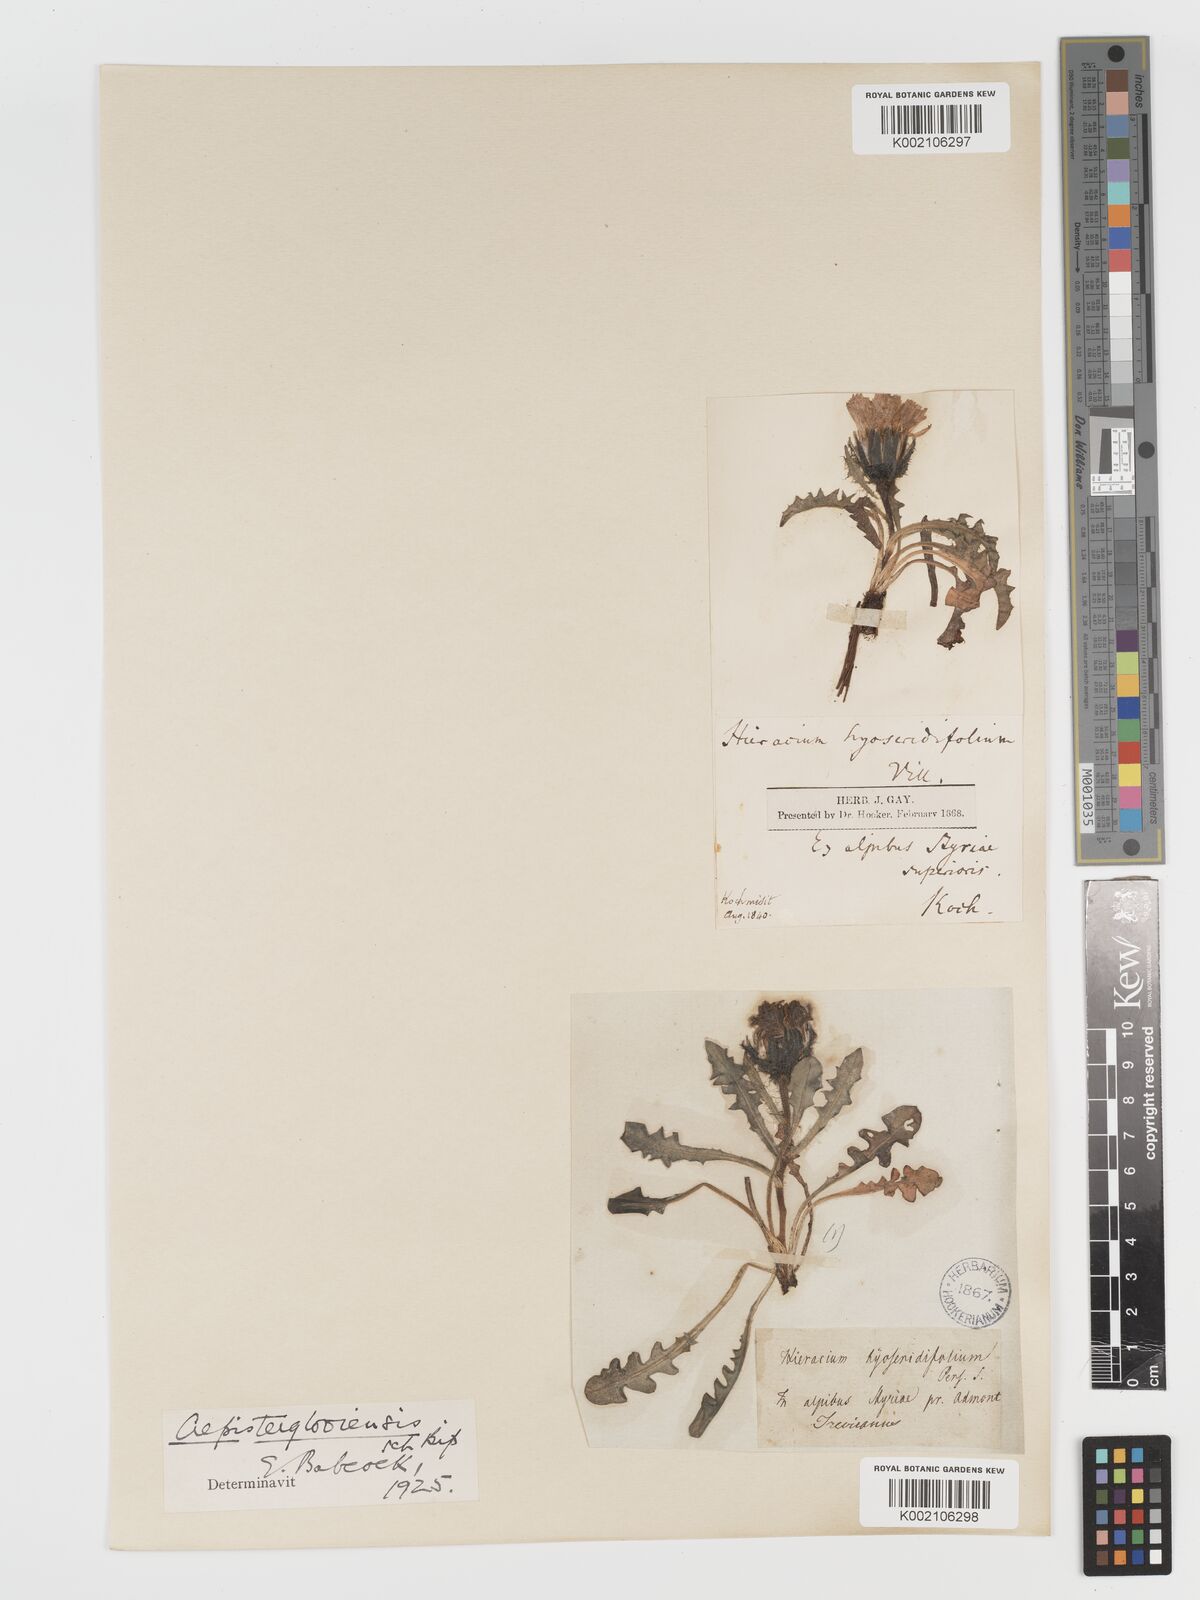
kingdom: Plantae
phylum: Tracheophyta
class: Magnoliopsida
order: Asterales
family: Asteraceae
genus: Crepis
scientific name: Crepis terglouensis
